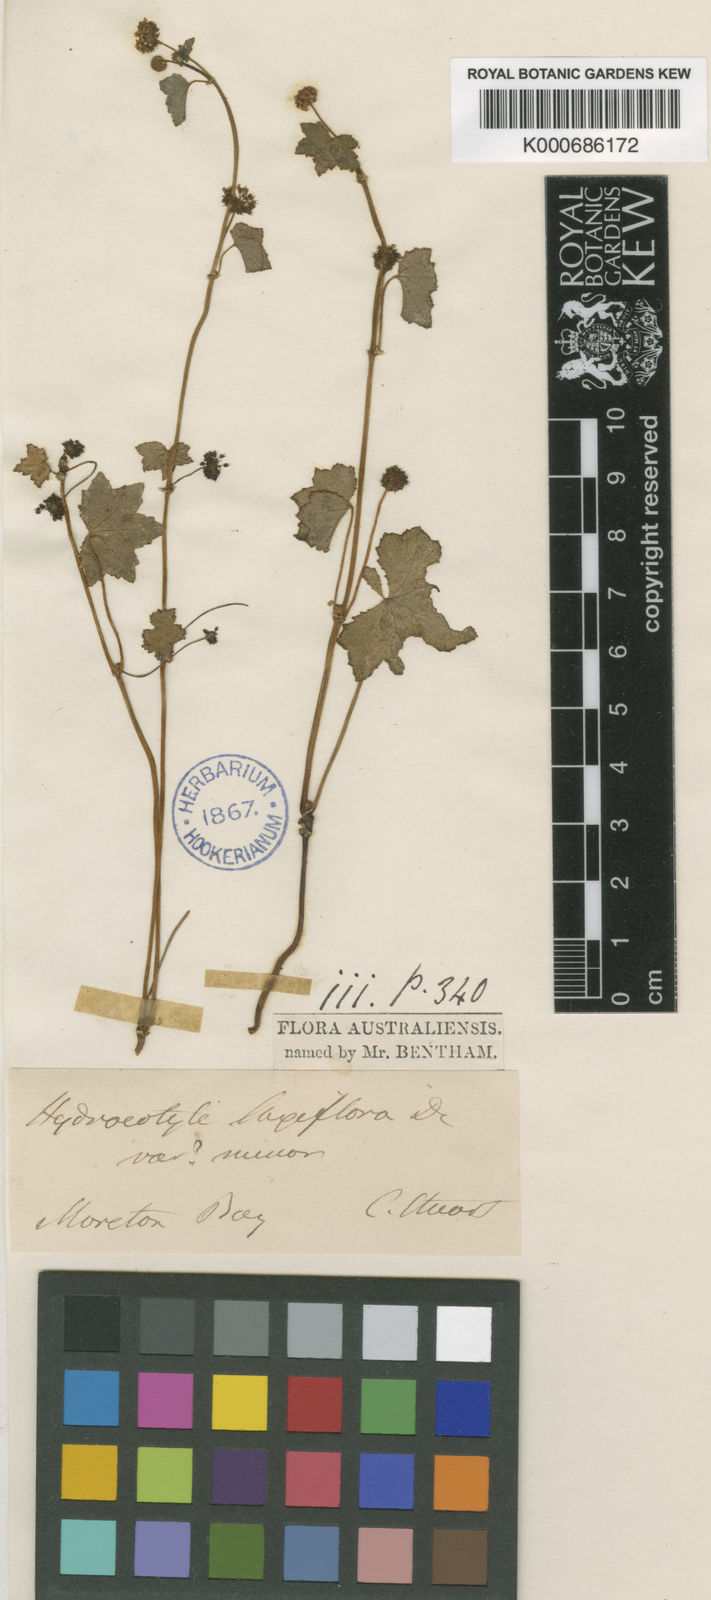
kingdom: Plantae
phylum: Tracheophyta
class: Magnoliopsida
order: Apiales
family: Araliaceae
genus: Hydrocotyle
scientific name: Hydrocotyle laxiflora
